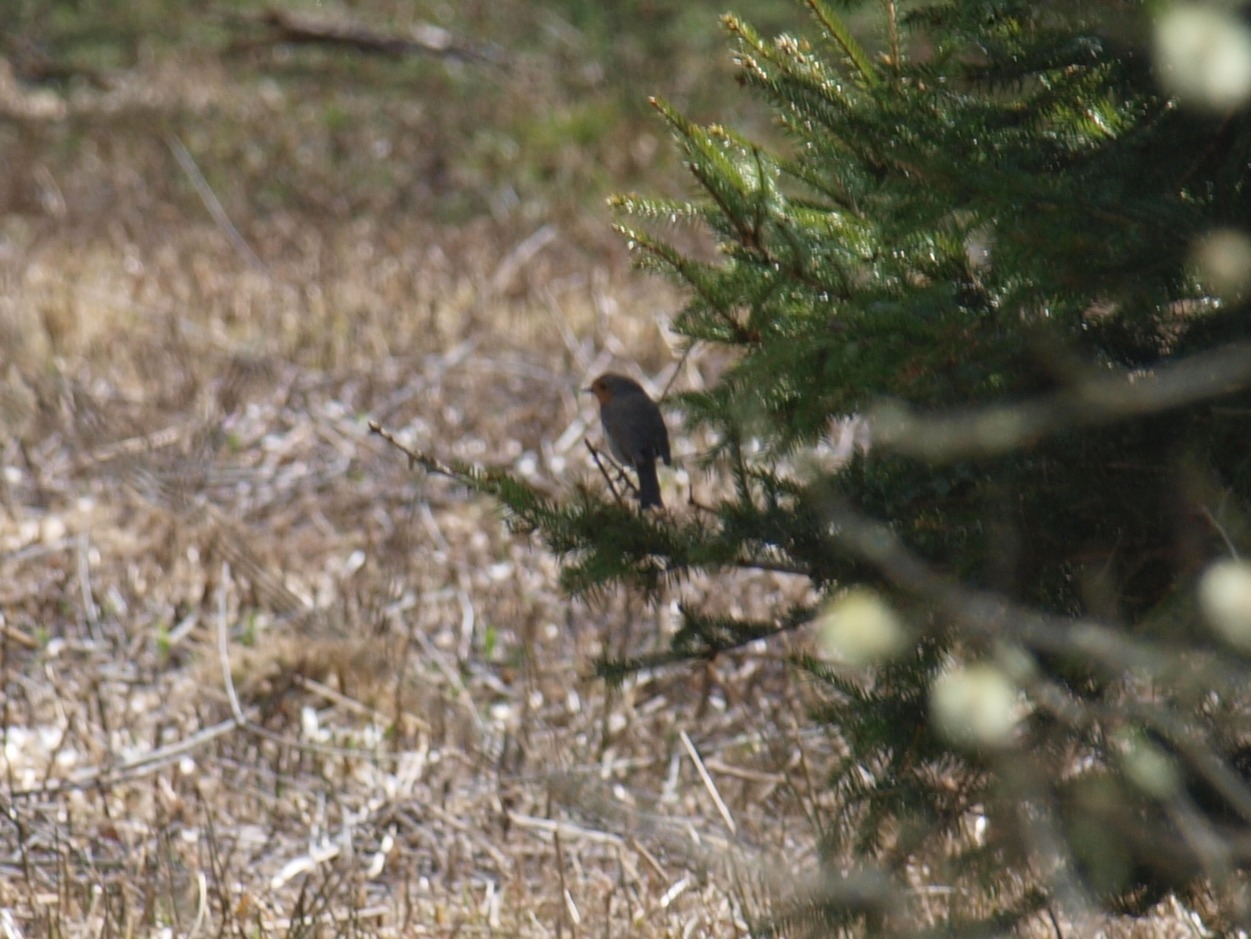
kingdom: Animalia
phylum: Chordata
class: Aves
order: Passeriformes
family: Muscicapidae
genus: Erithacus
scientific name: Erithacus rubecula
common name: Rødhals/rødkælk
